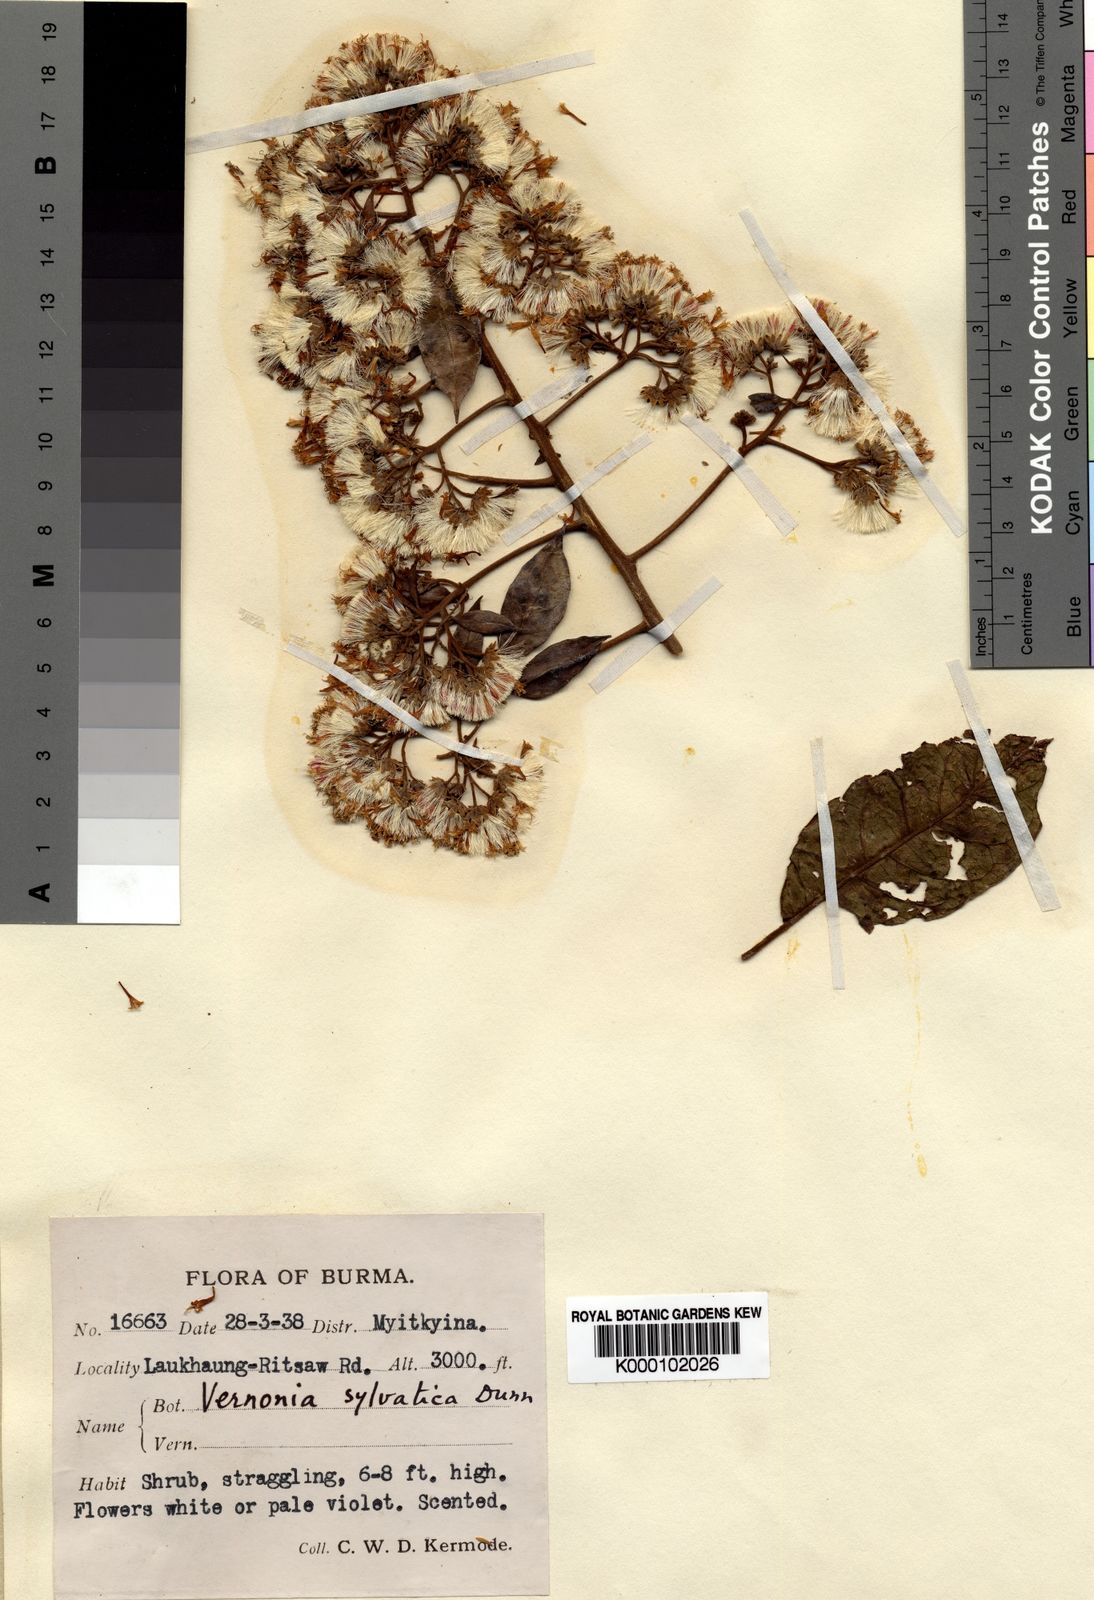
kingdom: Plantae
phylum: Tracheophyta
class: Magnoliopsida
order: Asterales
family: Asteraceae
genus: Strobocalyx
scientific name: Strobocalyx sylvatica
